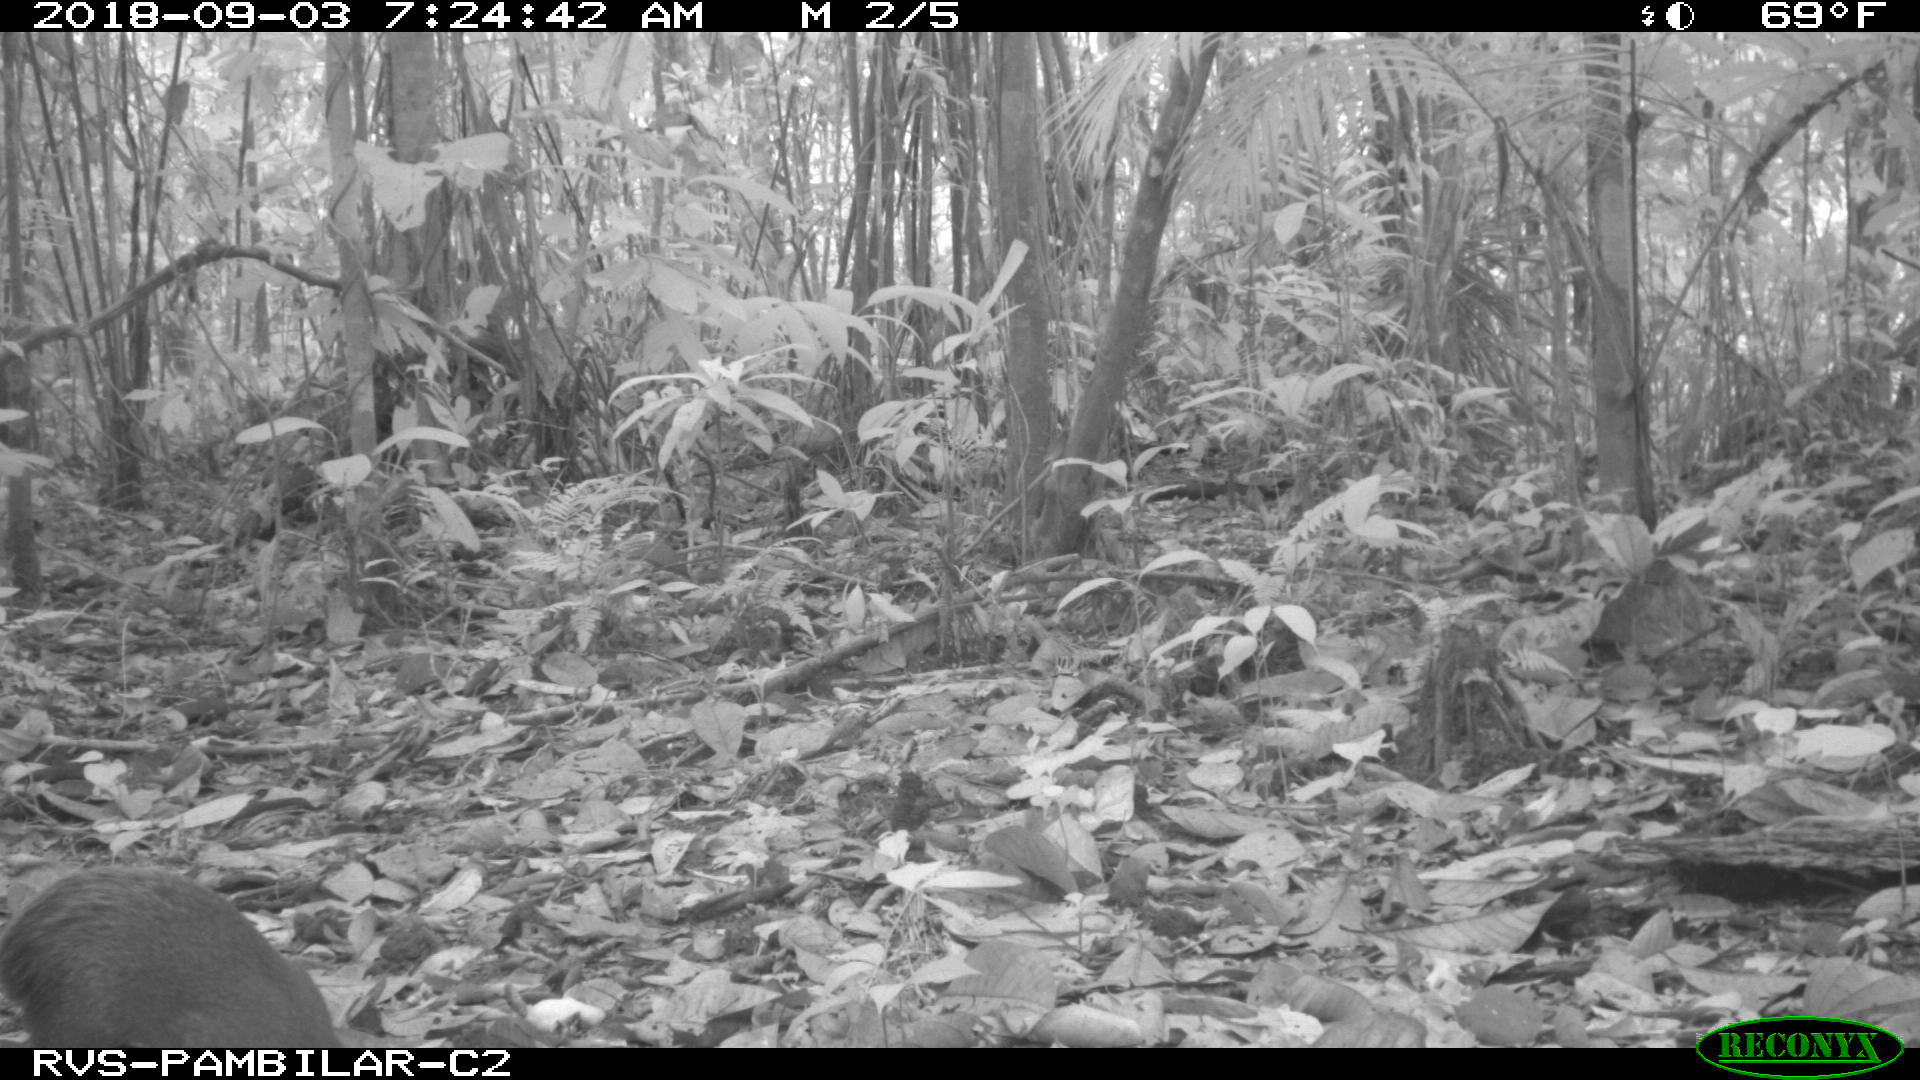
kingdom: Animalia
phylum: Chordata
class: Mammalia
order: Rodentia
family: Dasyproctidae
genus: Dasyprocta
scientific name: Dasyprocta punctata
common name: Central american agouti
